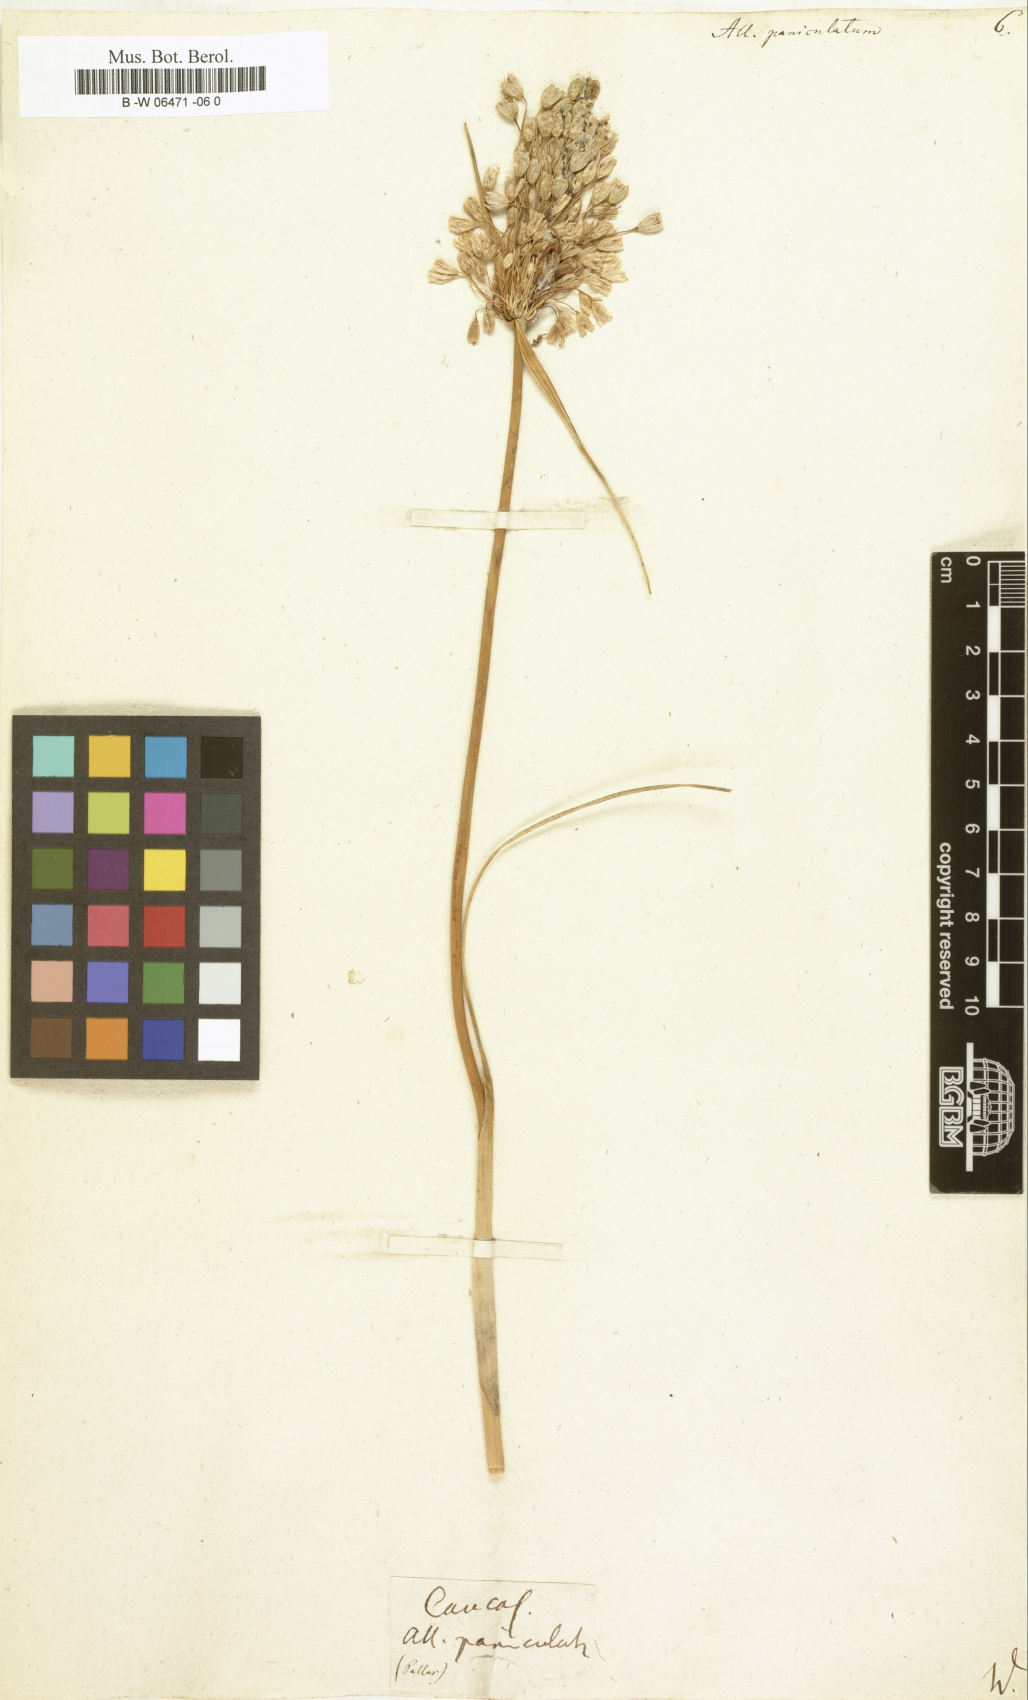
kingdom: Plantae
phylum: Tracheophyta
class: Liliopsida
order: Asparagales
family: Amaryllidaceae
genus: Allium
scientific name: Allium paniculatum
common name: Pale garlic
